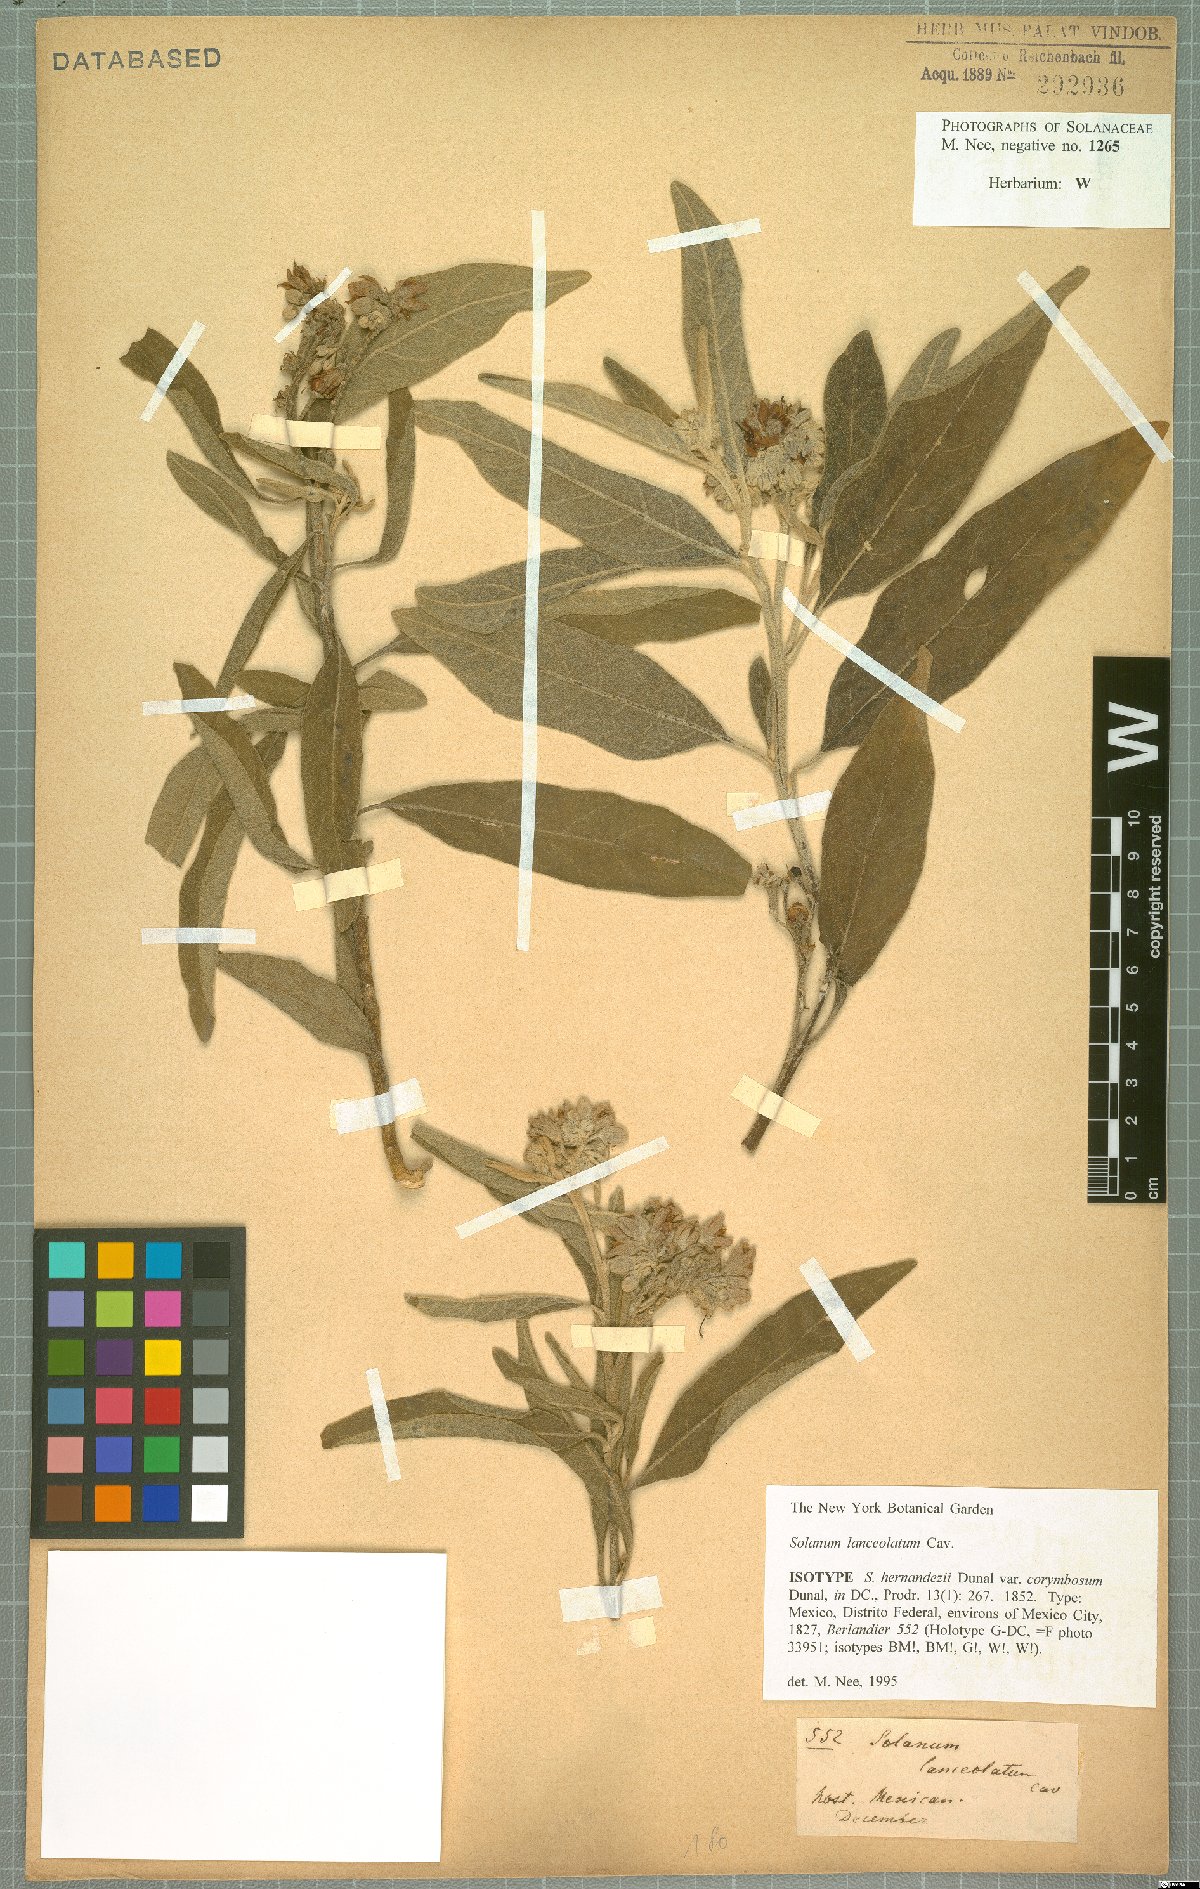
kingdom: Plantae
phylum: Tracheophyta
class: Magnoliopsida
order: Solanales
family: Solanaceae
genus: Solanum
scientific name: Solanum lanceolatum
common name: Orangeberry nightshade
